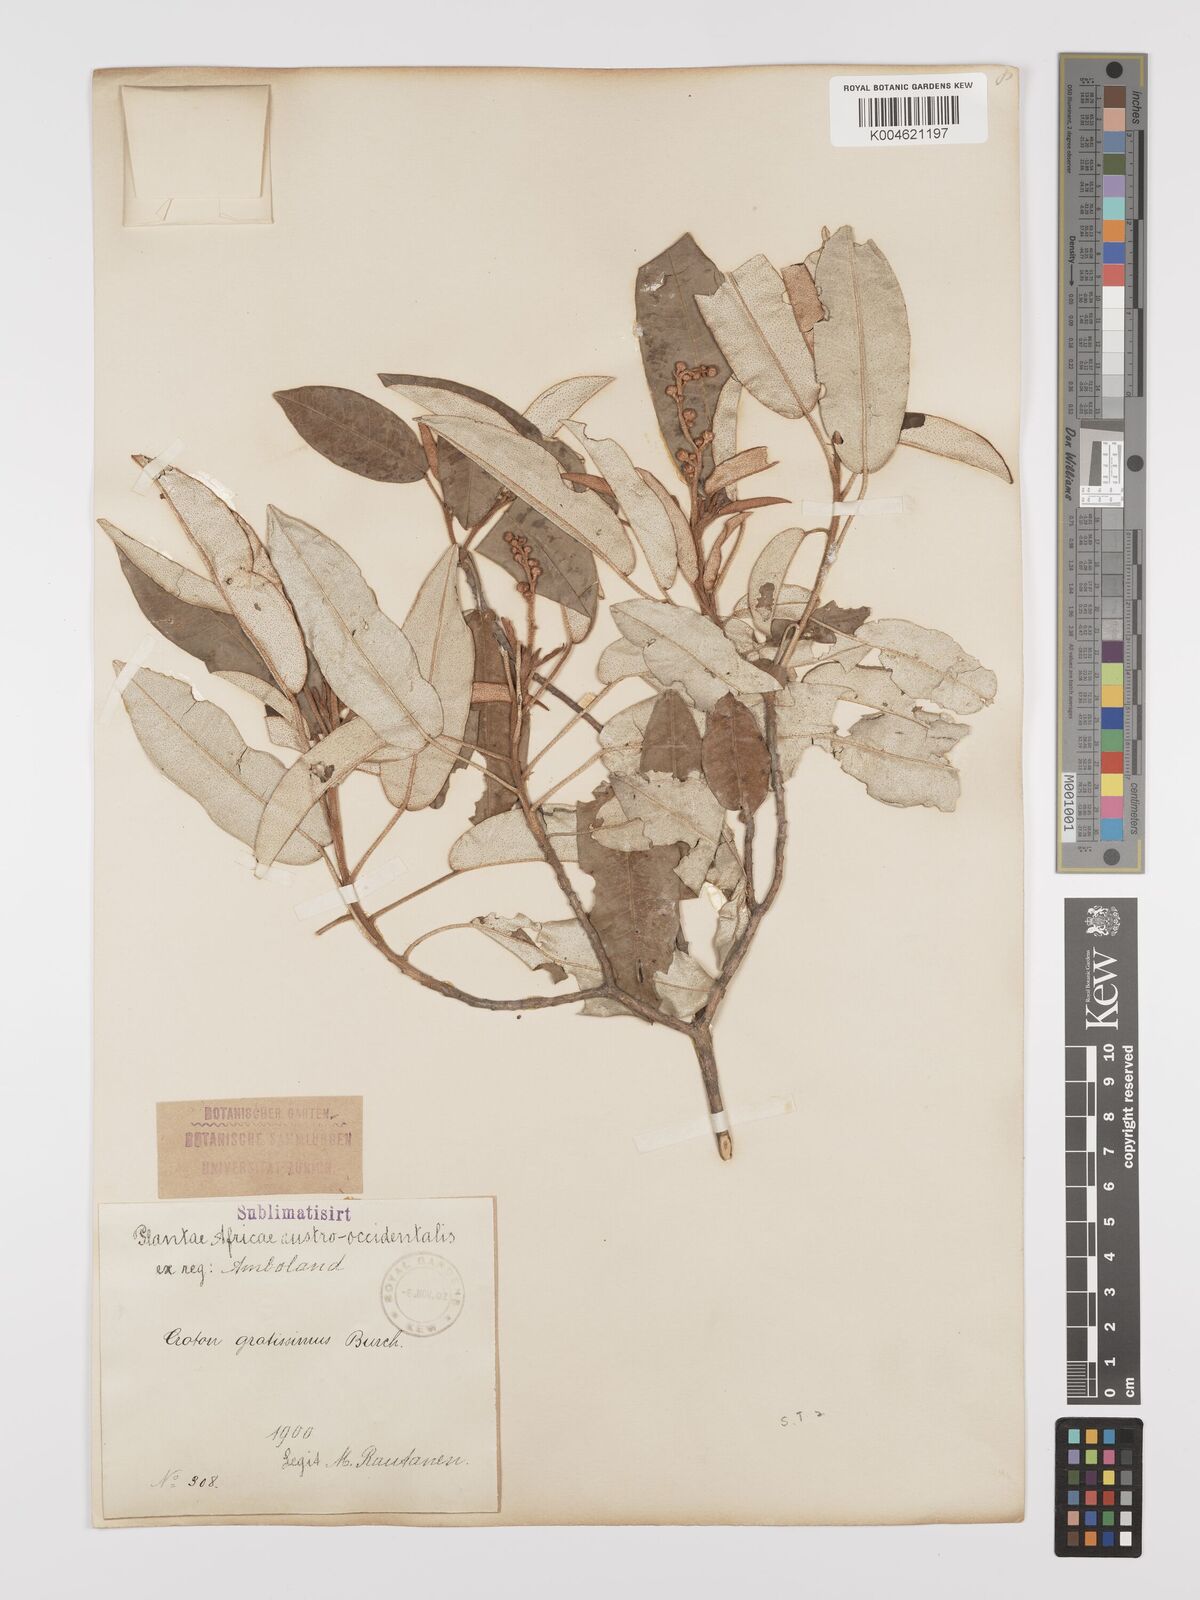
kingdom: Plantae
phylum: Tracheophyta
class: Magnoliopsida
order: Malpighiales
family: Euphorbiaceae
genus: Croton
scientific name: Croton gratissimus
